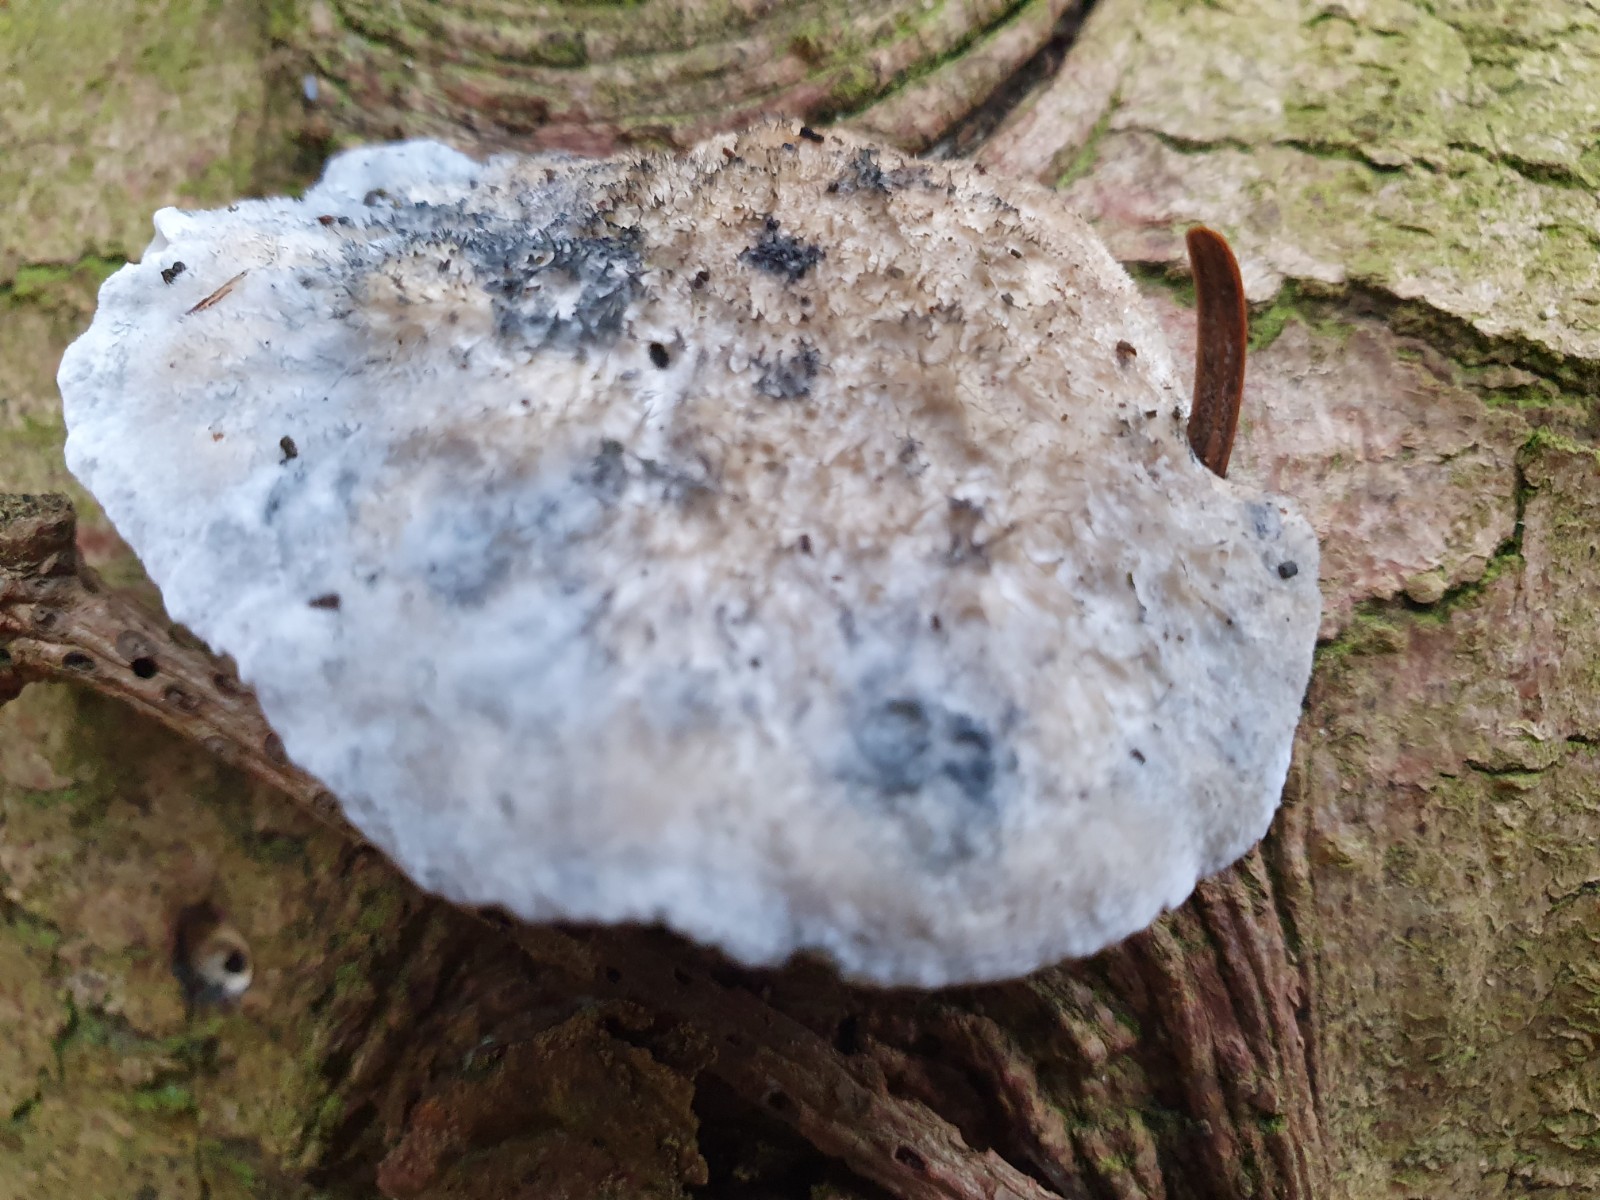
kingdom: Fungi
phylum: Basidiomycota
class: Agaricomycetes
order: Polyporales
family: Polyporaceae
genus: Cyanosporus
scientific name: Cyanosporus alni
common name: blegblå kødporesvamp
